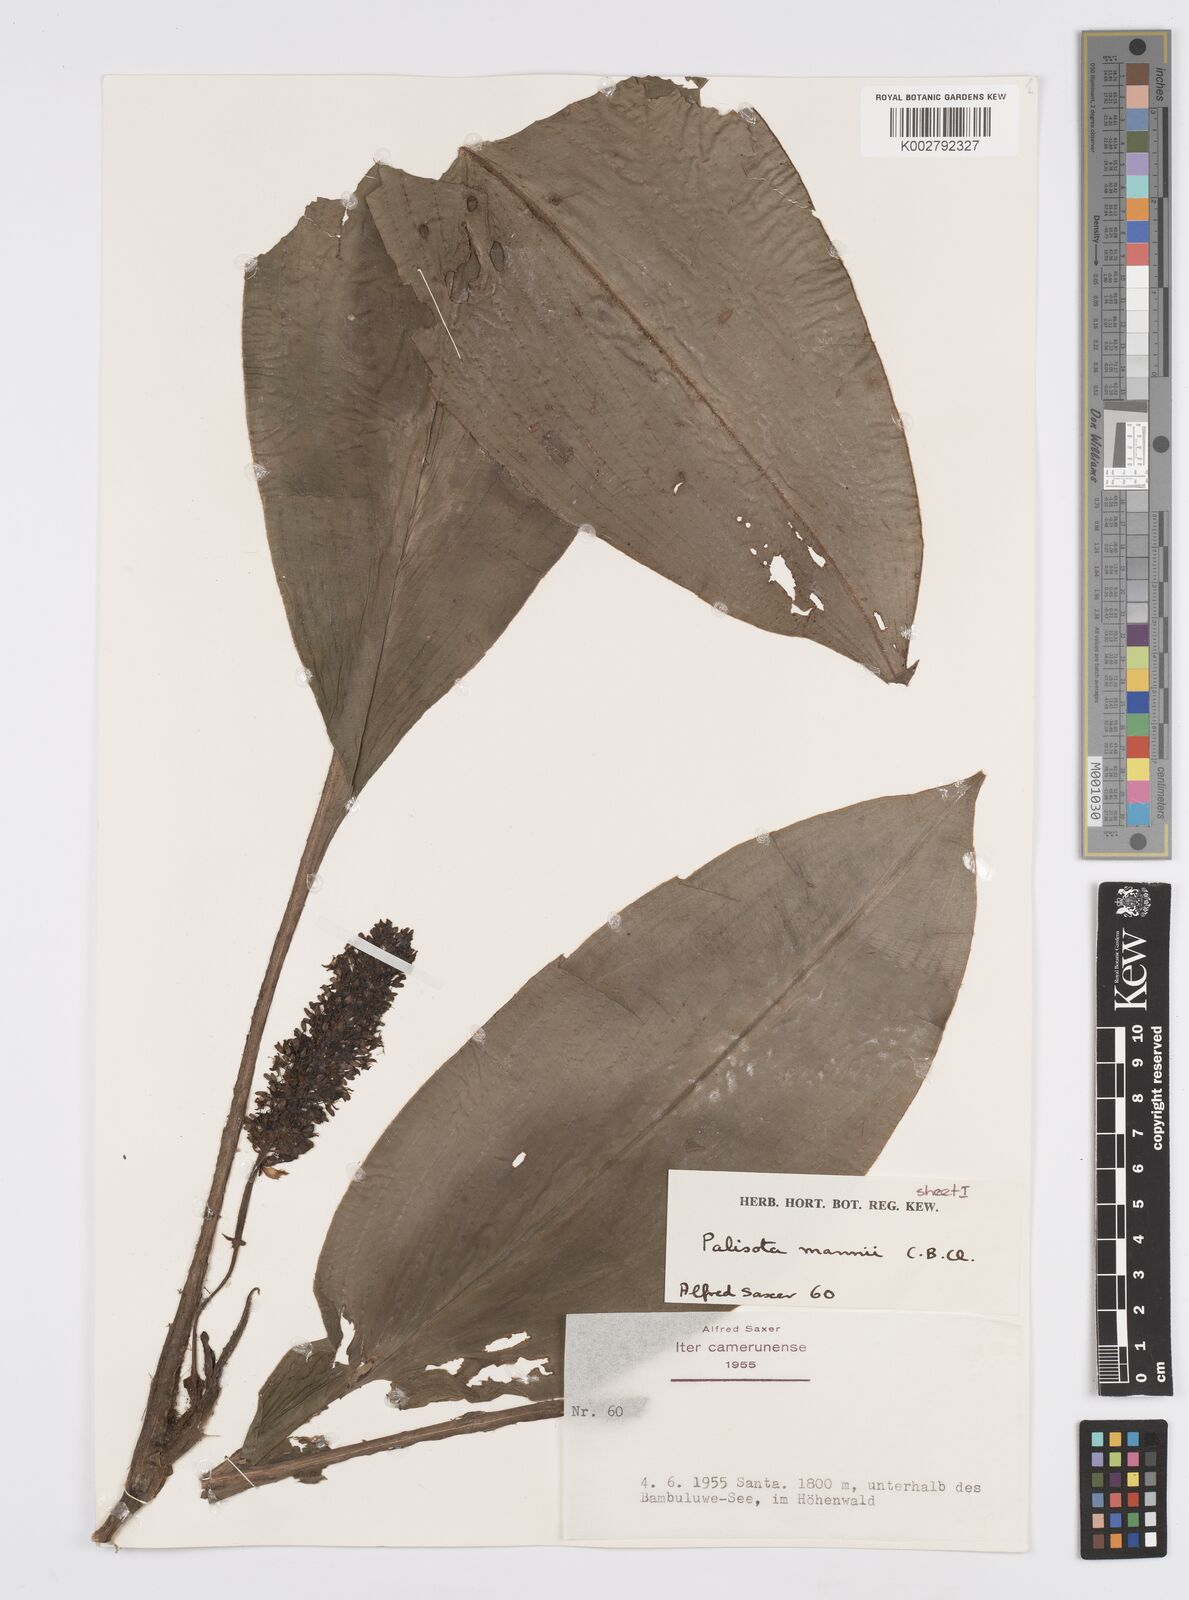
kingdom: Plantae
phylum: Tracheophyta
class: Liliopsida
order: Commelinales
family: Commelinaceae
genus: Palisota
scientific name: Palisota mannii
